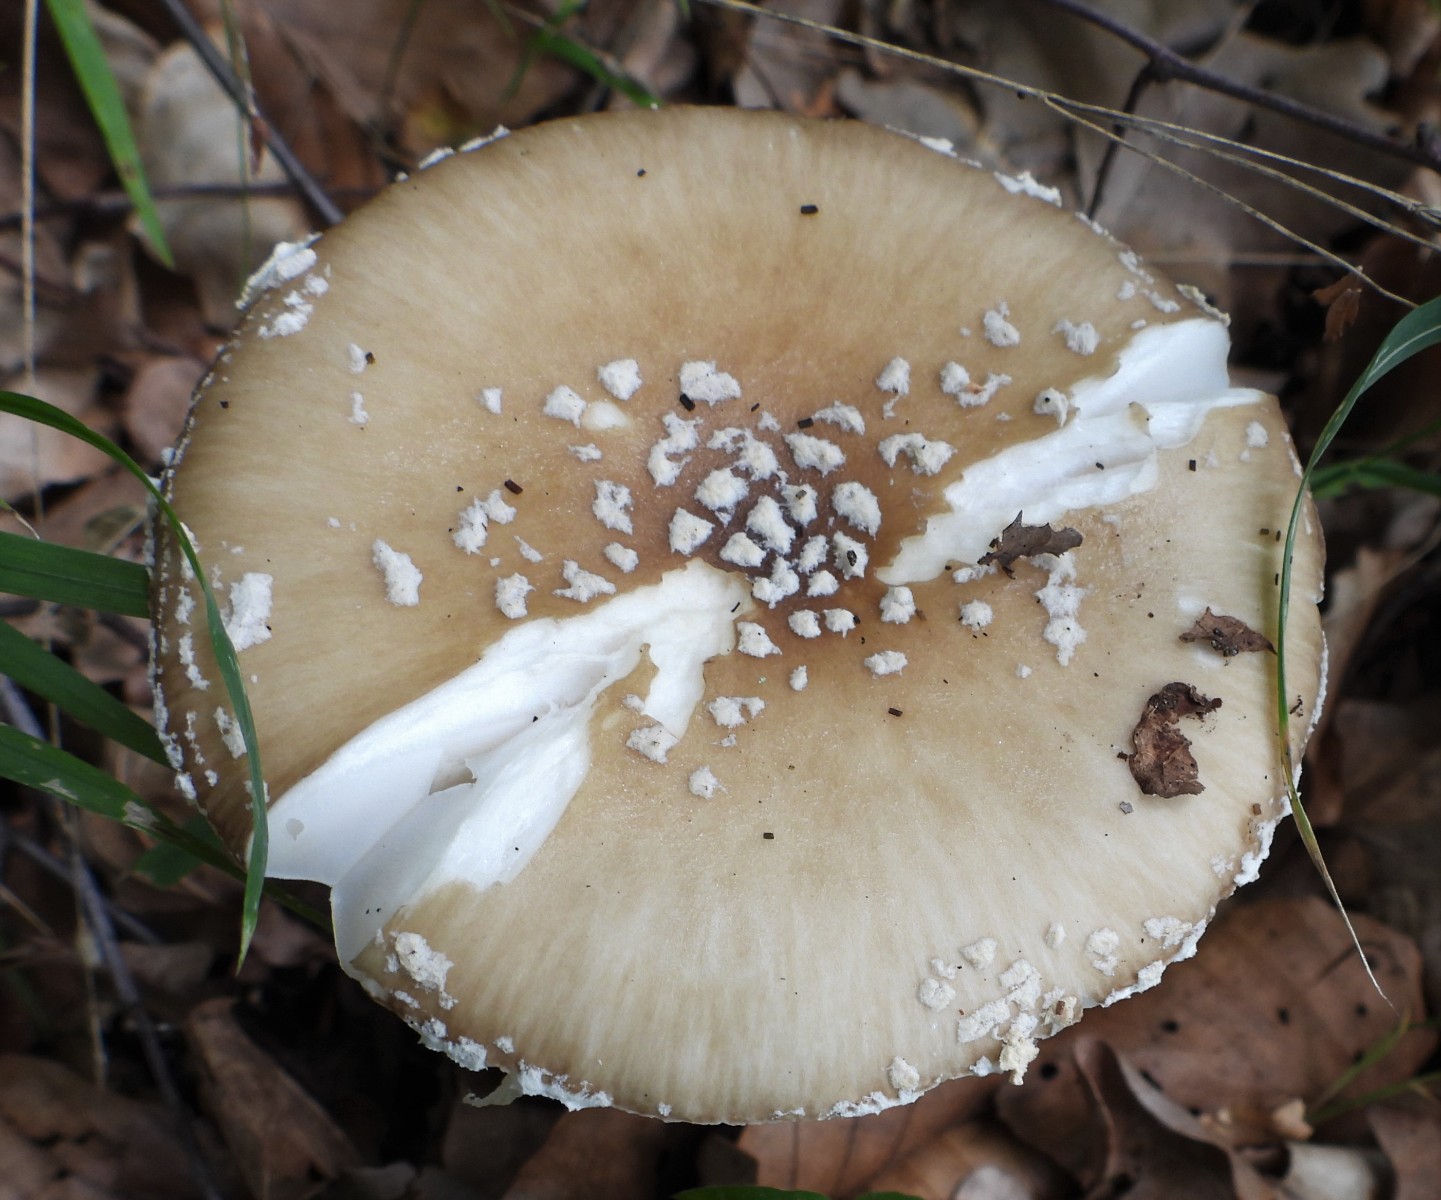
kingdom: Fungi
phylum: Basidiomycota
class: Agaricomycetes
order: Agaricales
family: Amanitaceae
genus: Amanita
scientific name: Amanita pantherina
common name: panter-fluesvamp
